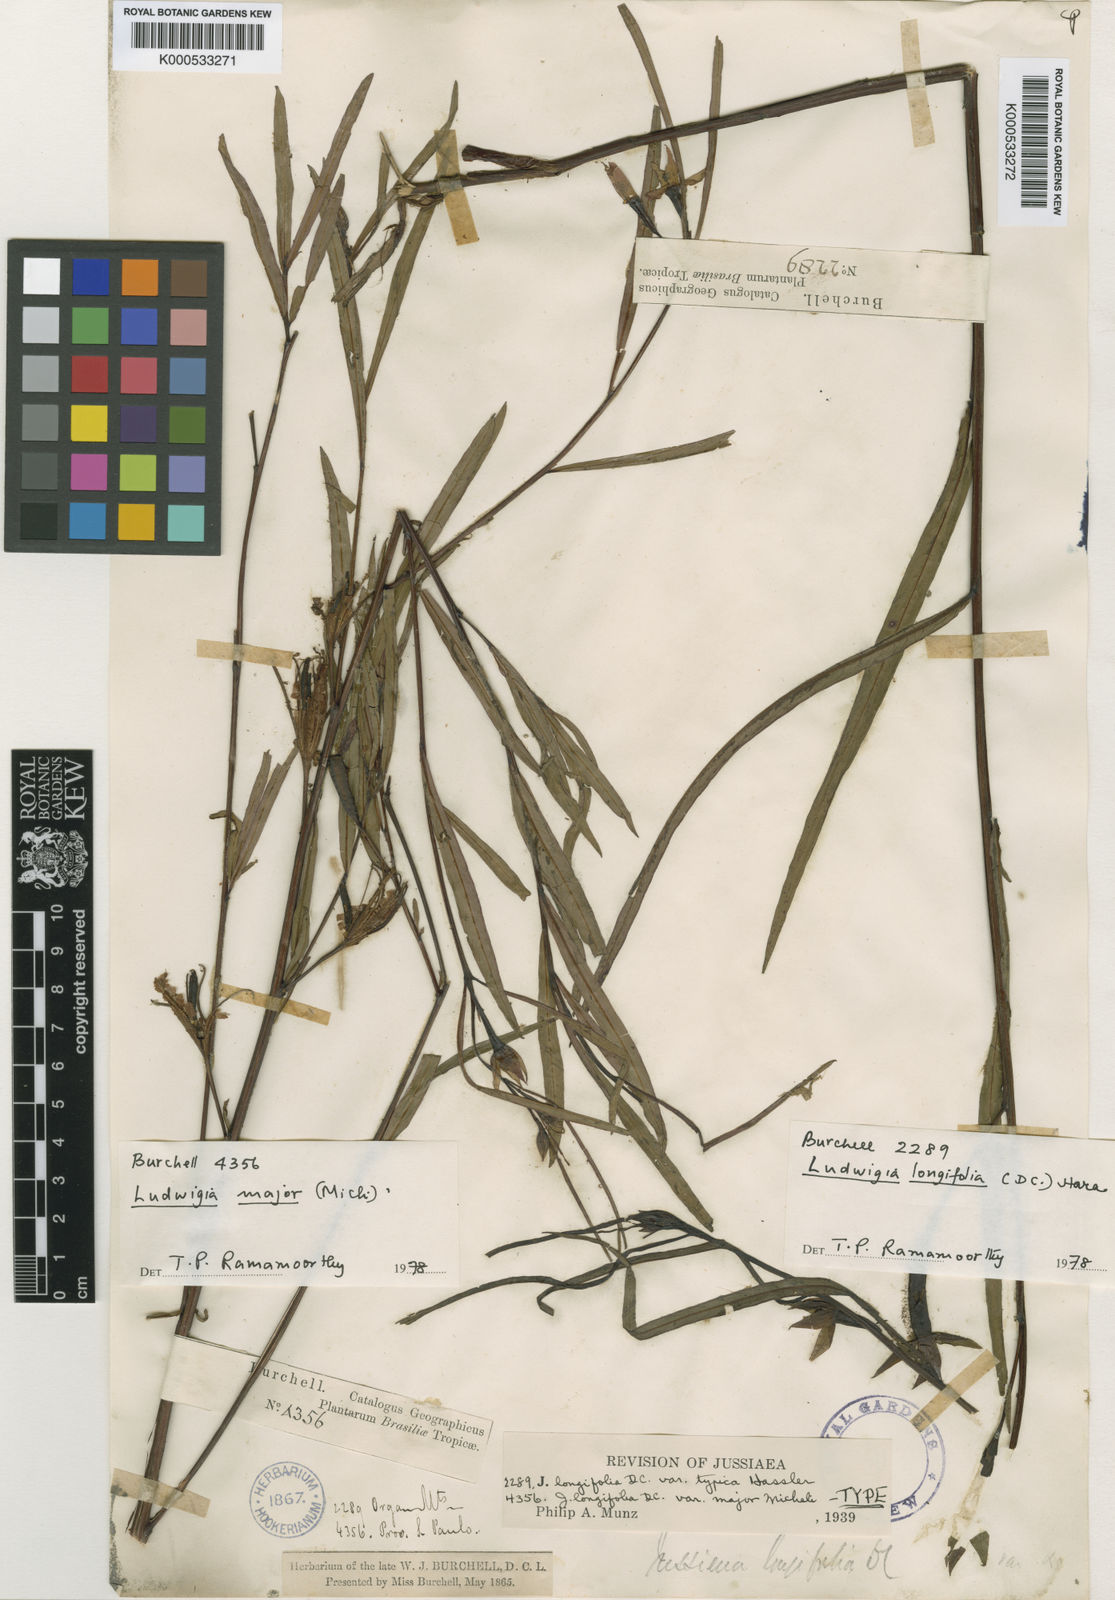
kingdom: Plantae
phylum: Tracheophyta
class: Magnoliopsida
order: Myrtales
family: Onagraceae
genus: Ludwigia
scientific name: Ludwigia major
